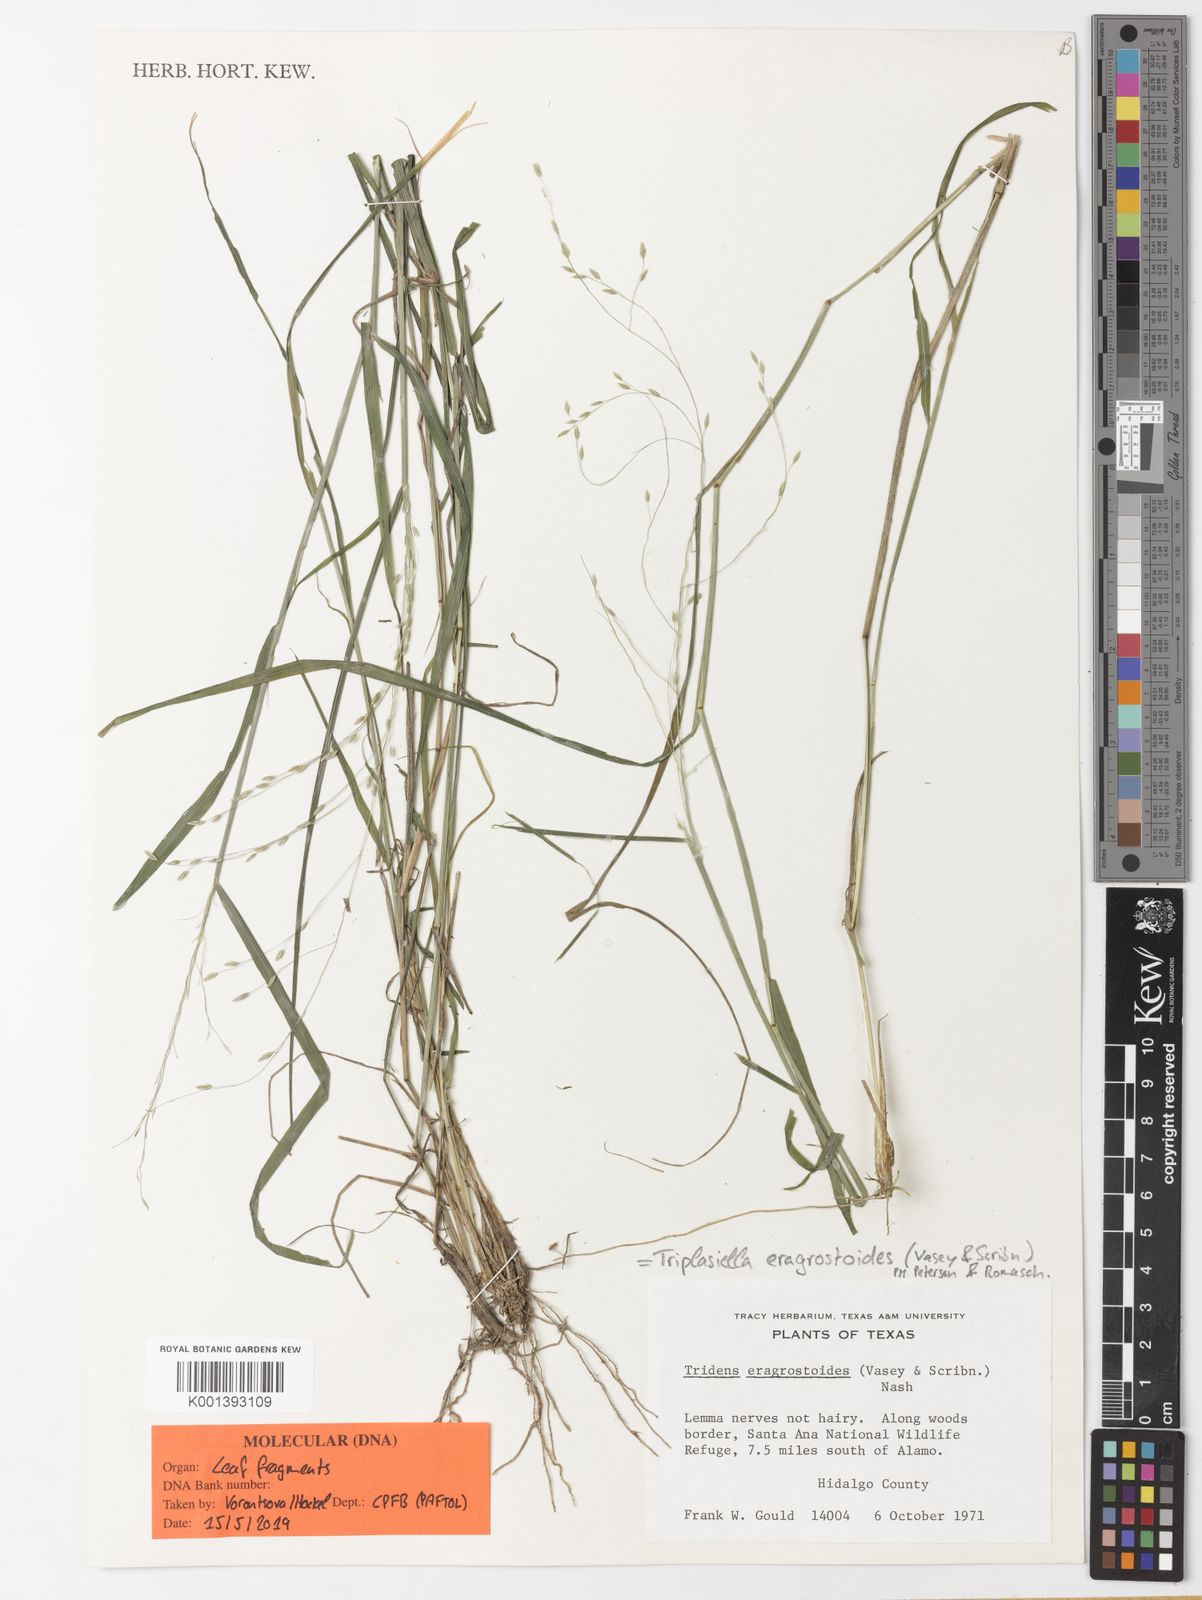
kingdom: Plantae
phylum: Tracheophyta
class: Liliopsida
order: Poales
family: Poaceae
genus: Triplasiella
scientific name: Triplasiella eragrostoides
